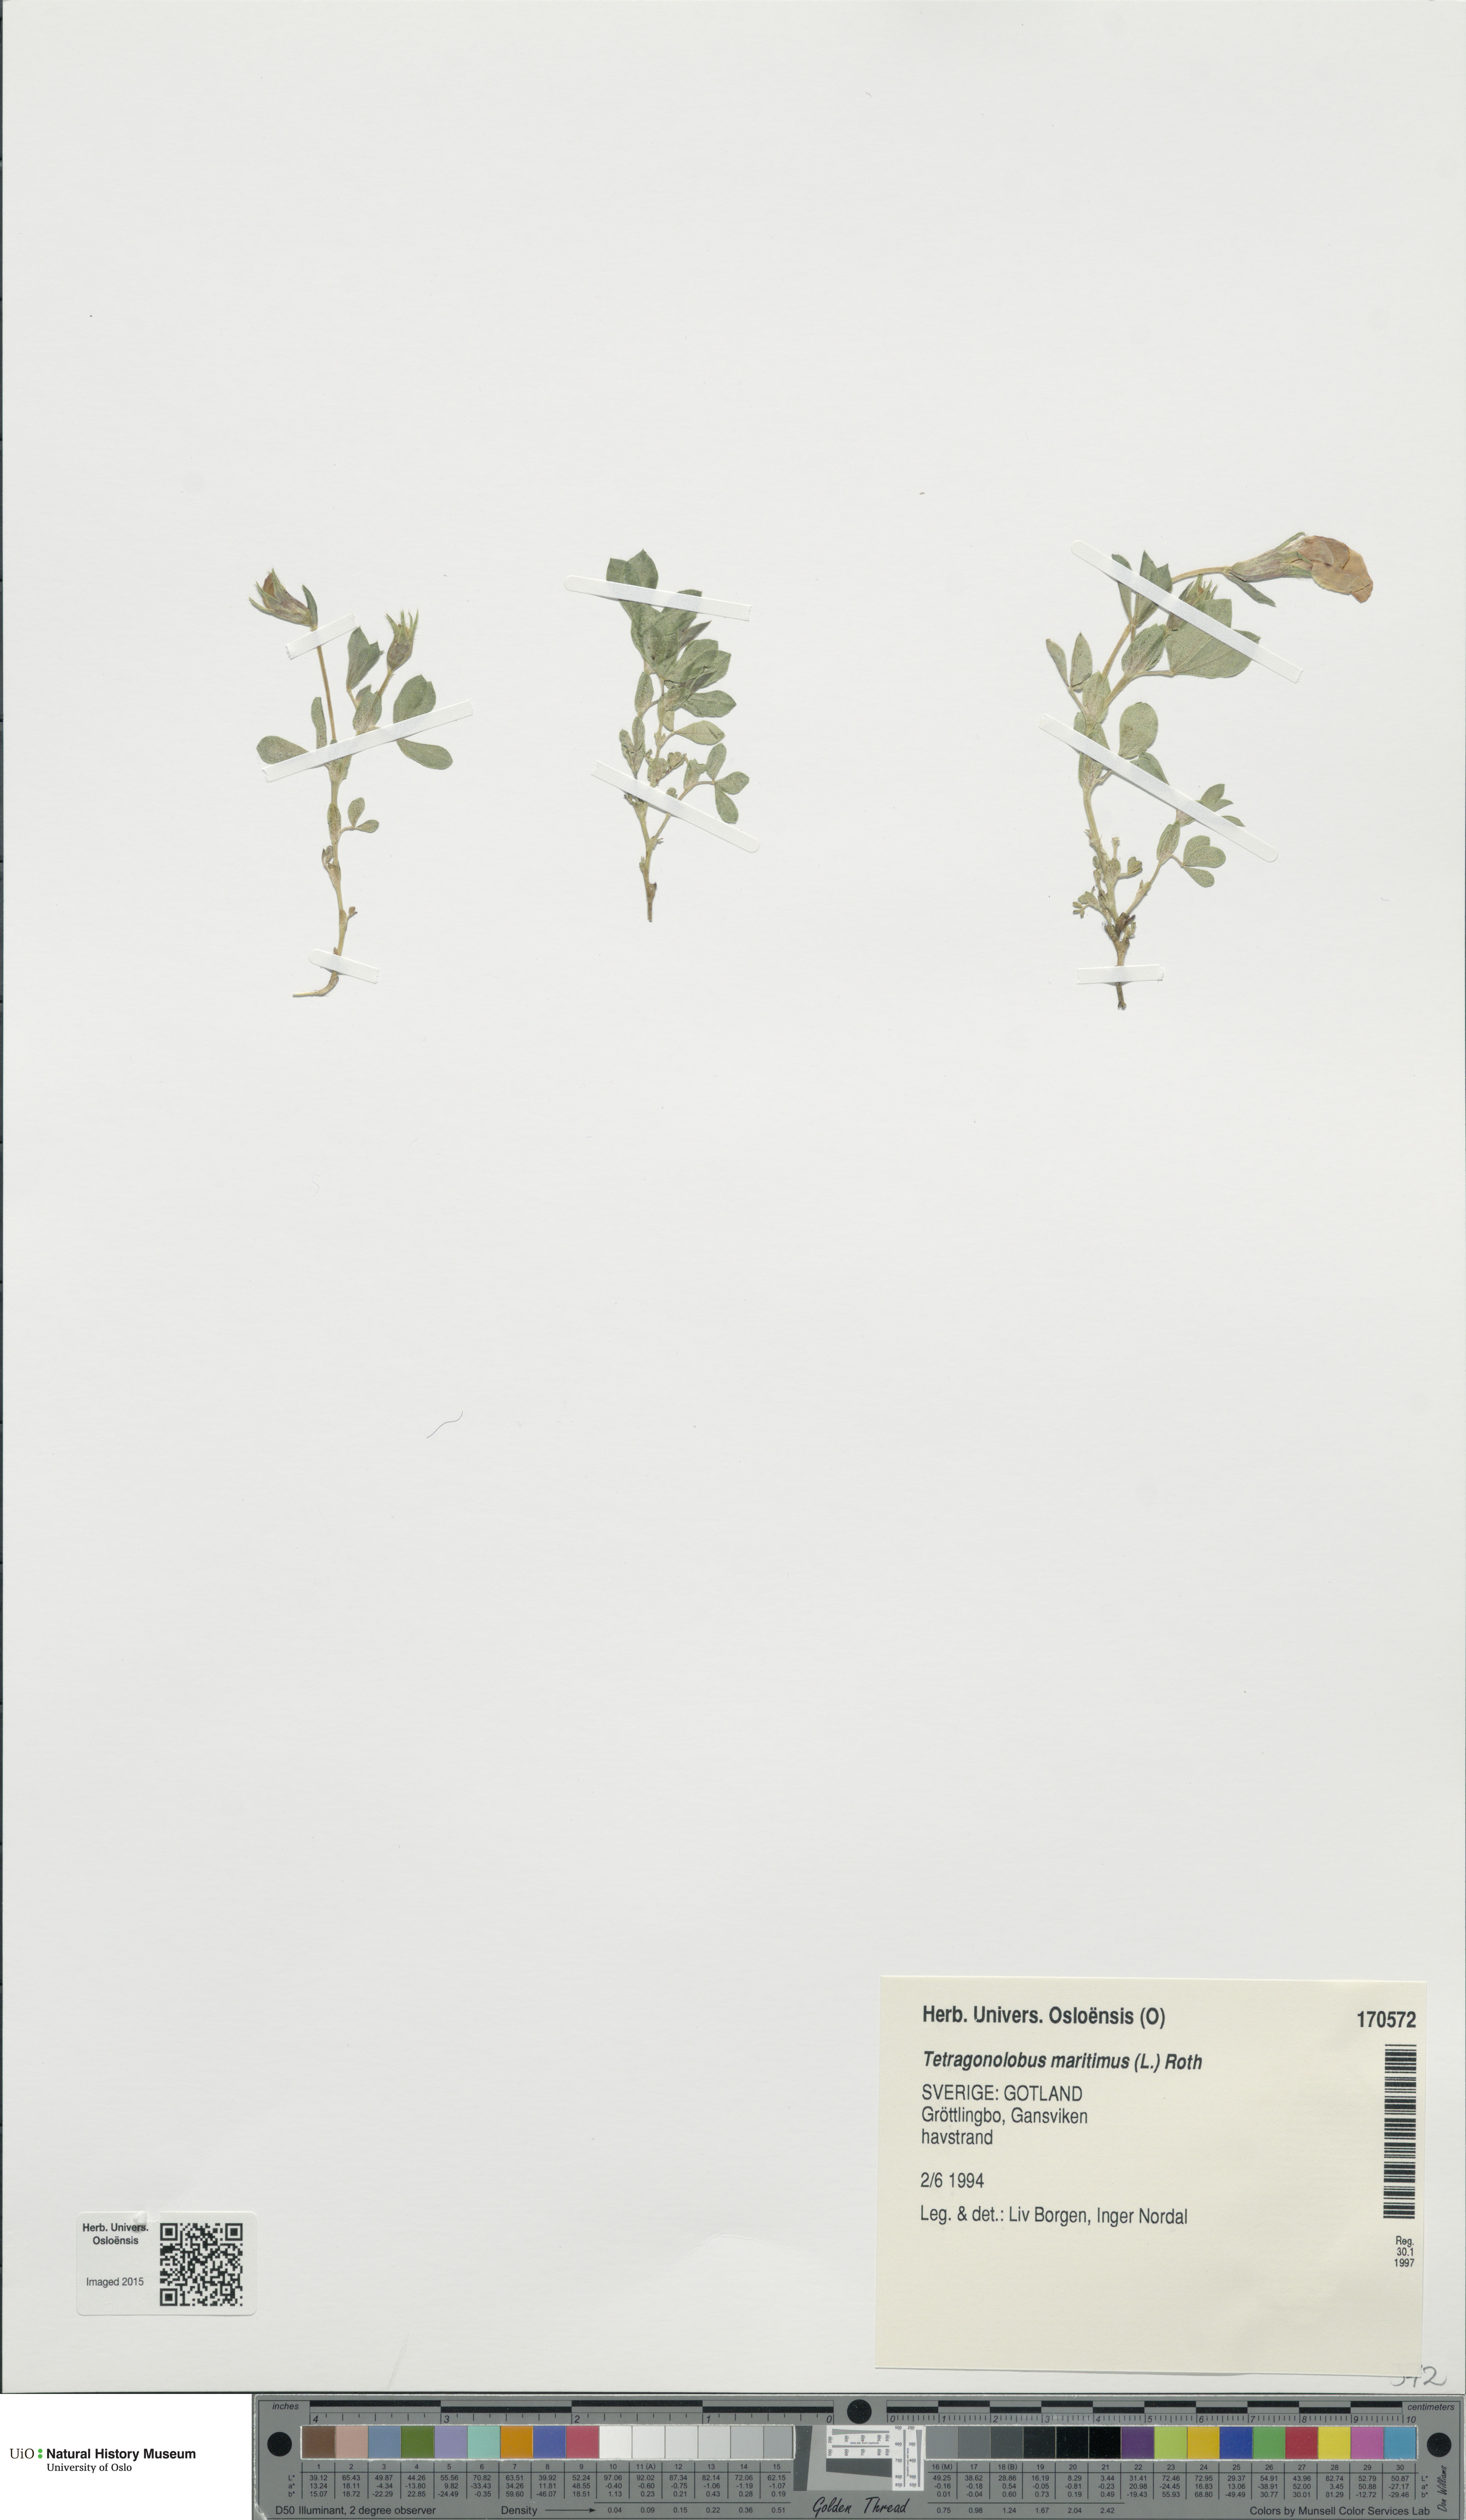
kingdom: Plantae
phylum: Tracheophyta
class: Magnoliopsida
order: Fabales
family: Fabaceae
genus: Lotus
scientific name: Lotus maritimus
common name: Dragon's-teeth
